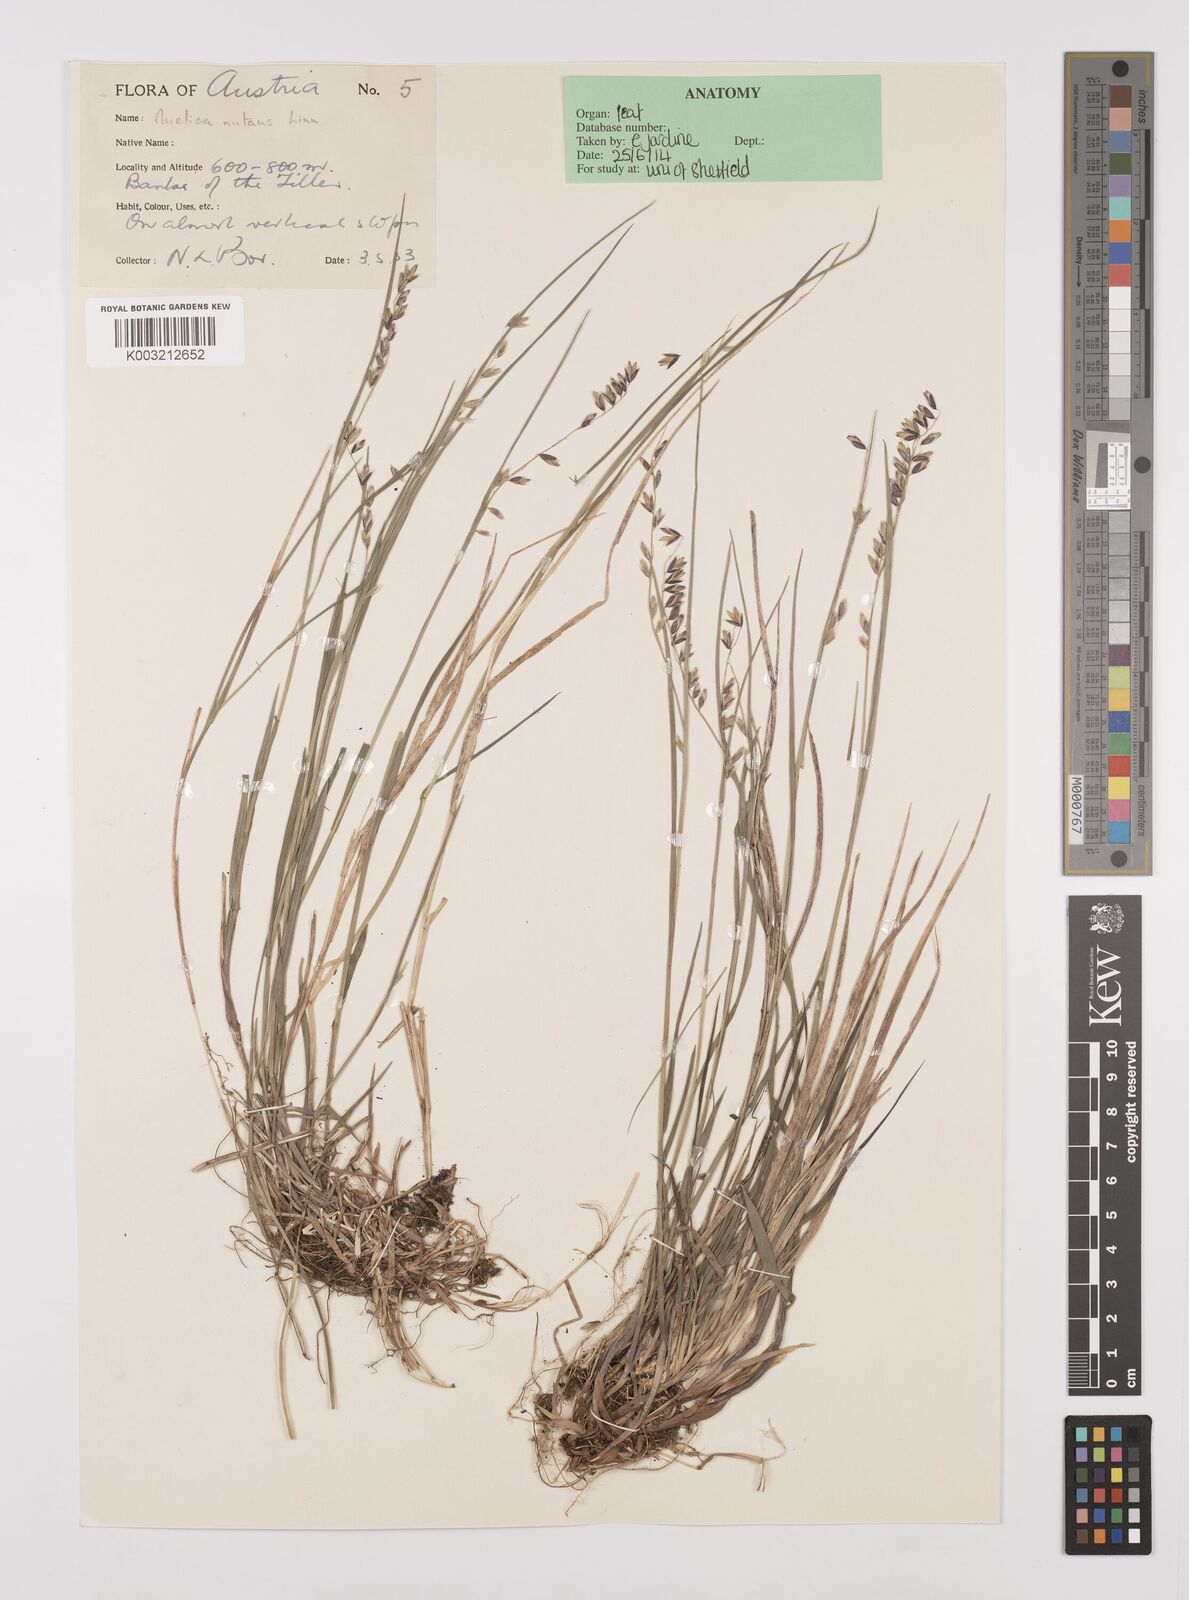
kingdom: Plantae
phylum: Tracheophyta
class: Liliopsida
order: Poales
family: Poaceae
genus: Melica
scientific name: Melica
